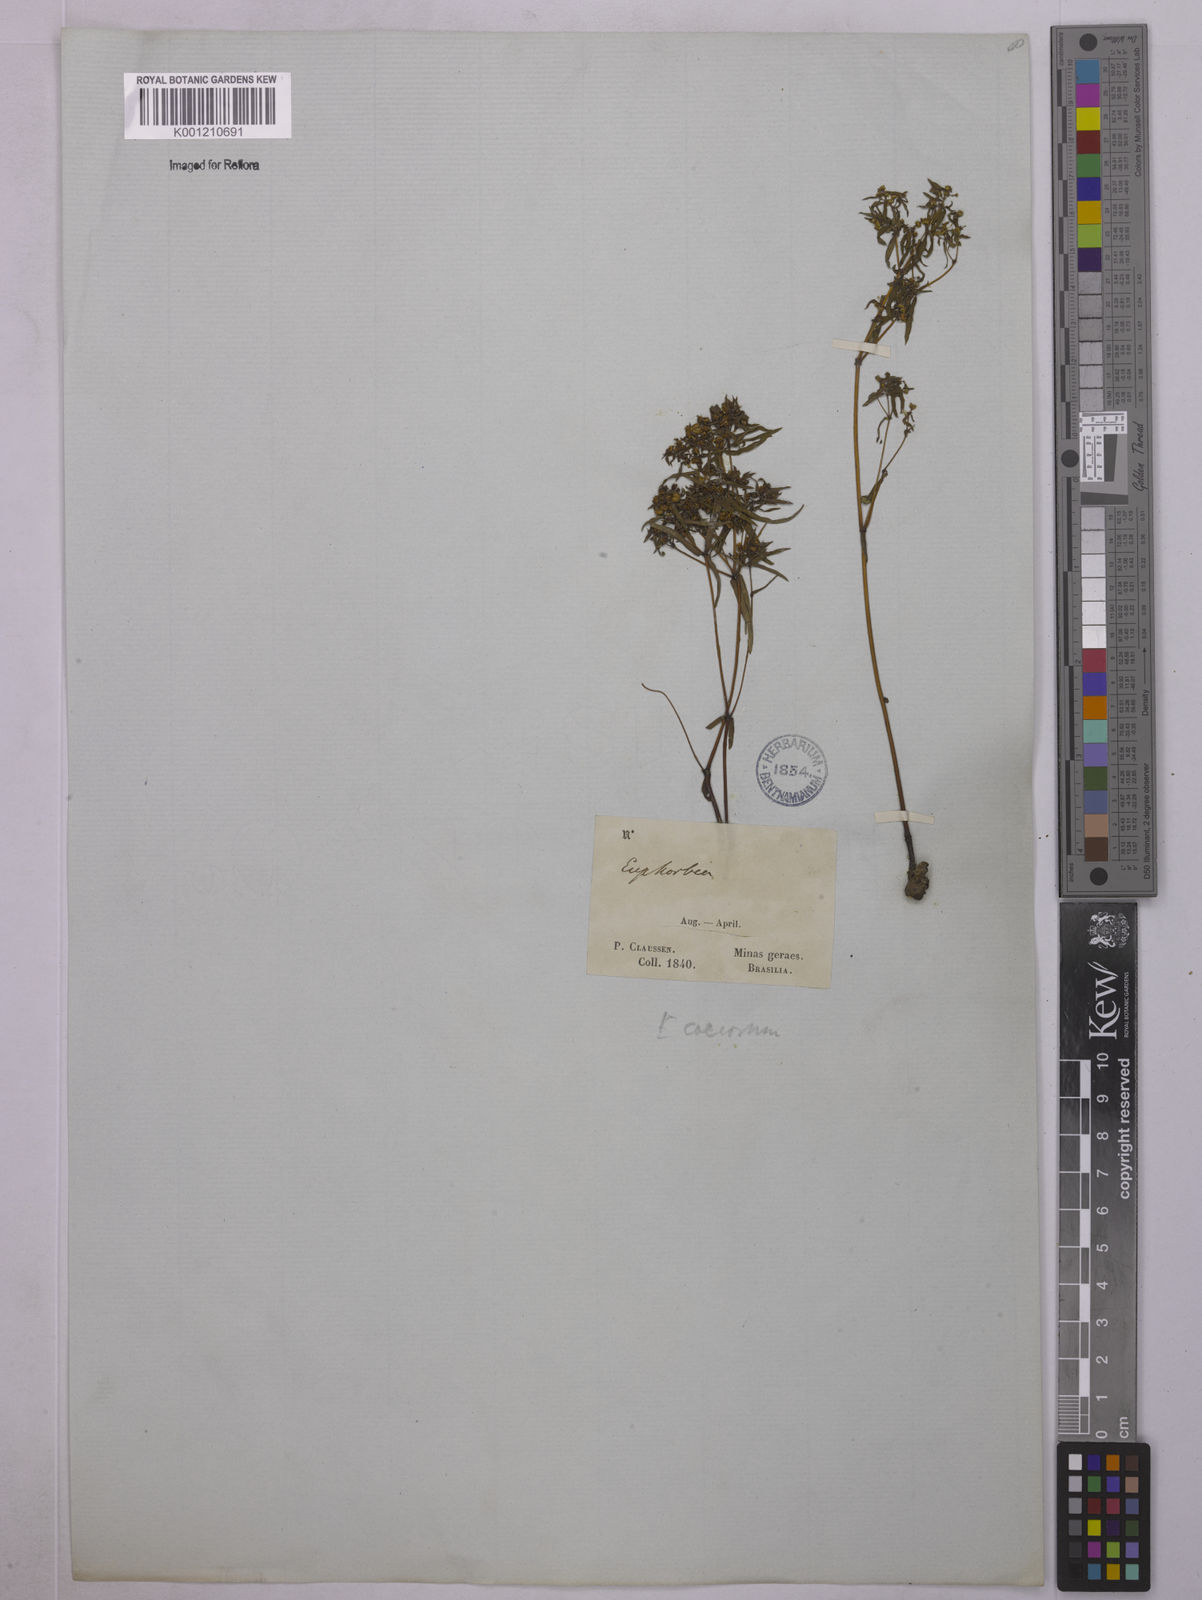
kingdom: Plantae
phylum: Tracheophyta
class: Magnoliopsida
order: Malpighiales
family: Euphorbiaceae
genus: Euphorbia
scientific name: Euphorbia potentilloides
